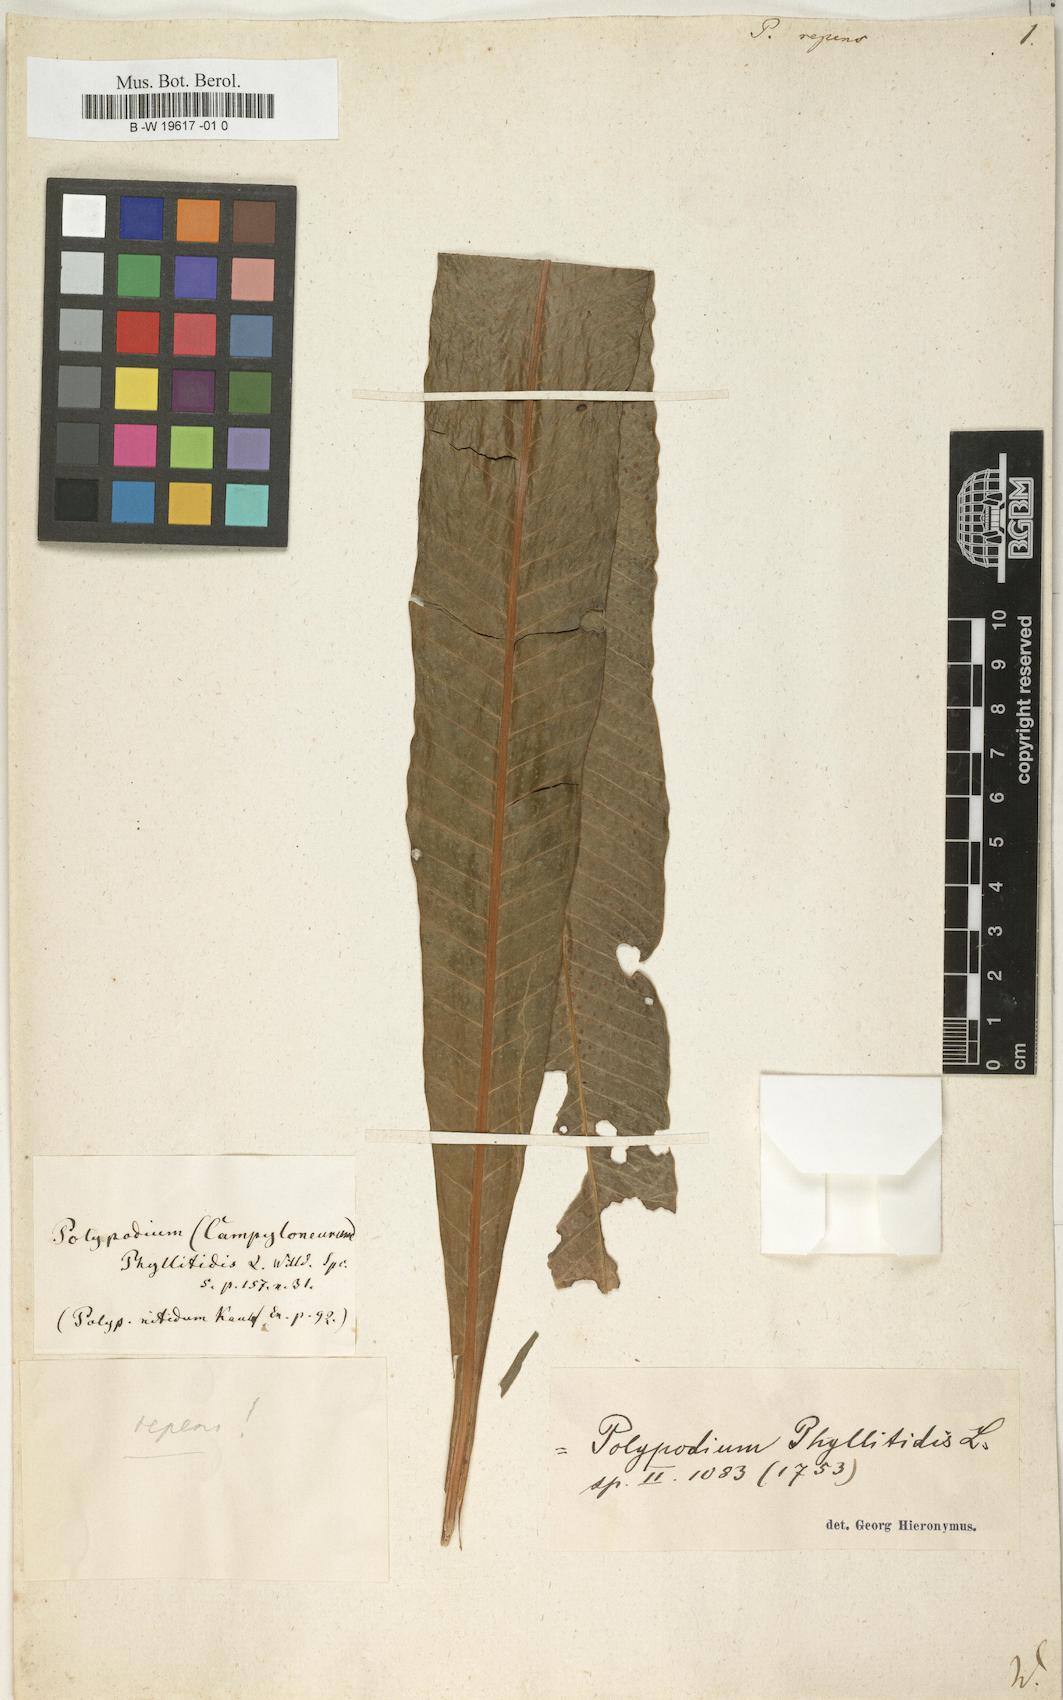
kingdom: Plantae
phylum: Tracheophyta
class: Polypodiopsida
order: Polypodiales
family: Polypodiaceae
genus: Campyloneurum
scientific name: Campyloneurum
